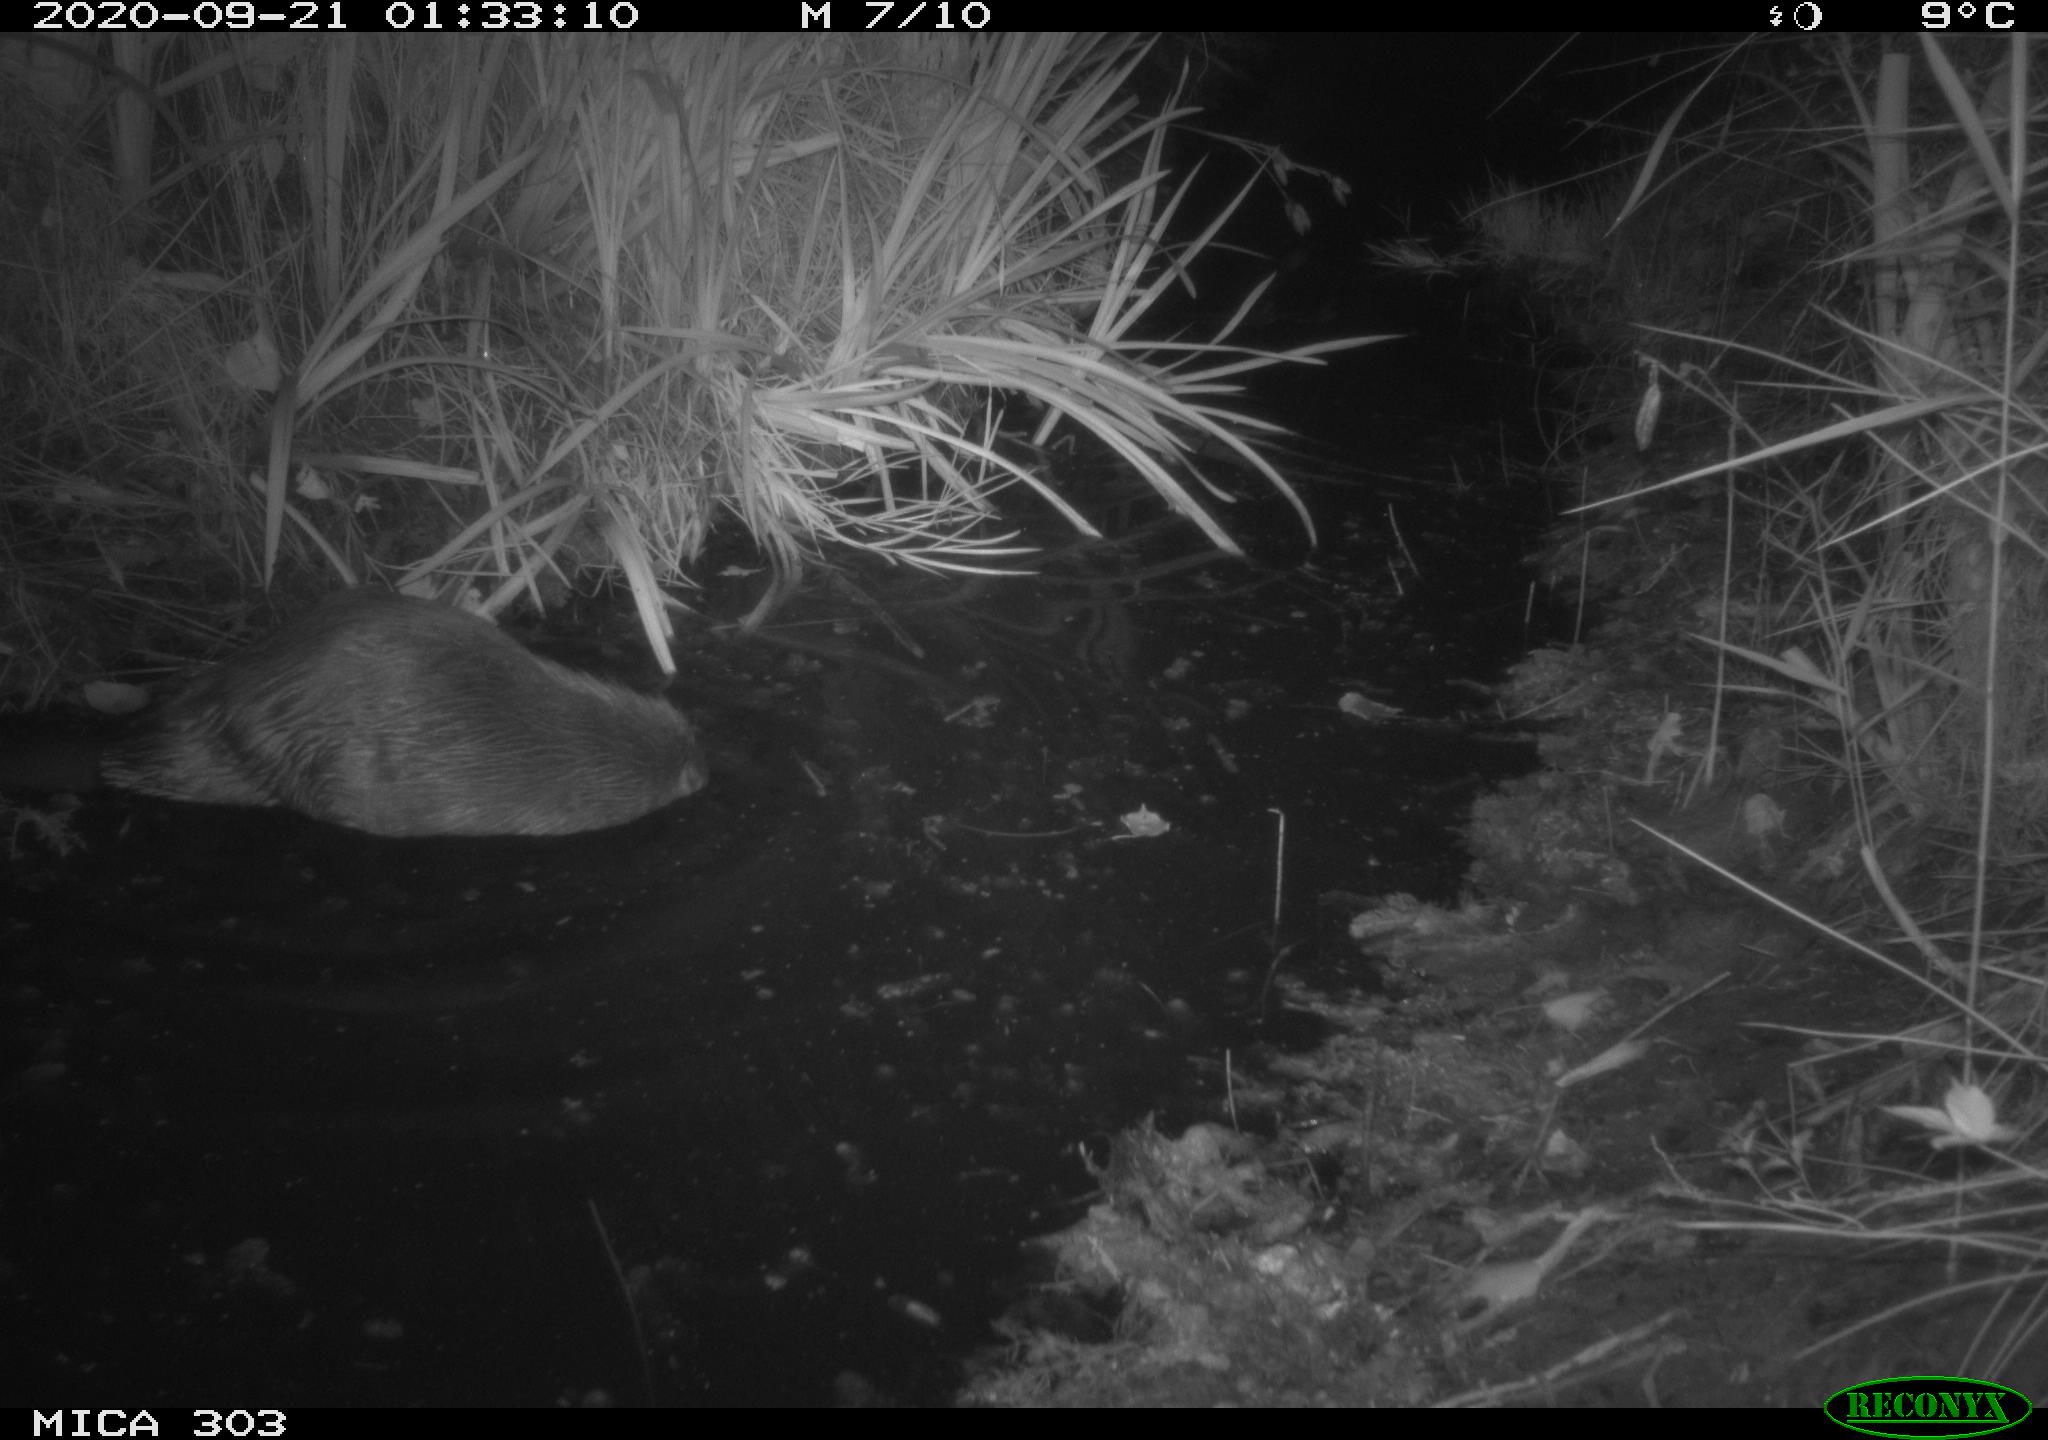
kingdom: Animalia
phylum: Chordata
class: Mammalia
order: Rodentia
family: Castoridae
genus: Castor
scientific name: Castor fiber
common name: Eurasian beaver
